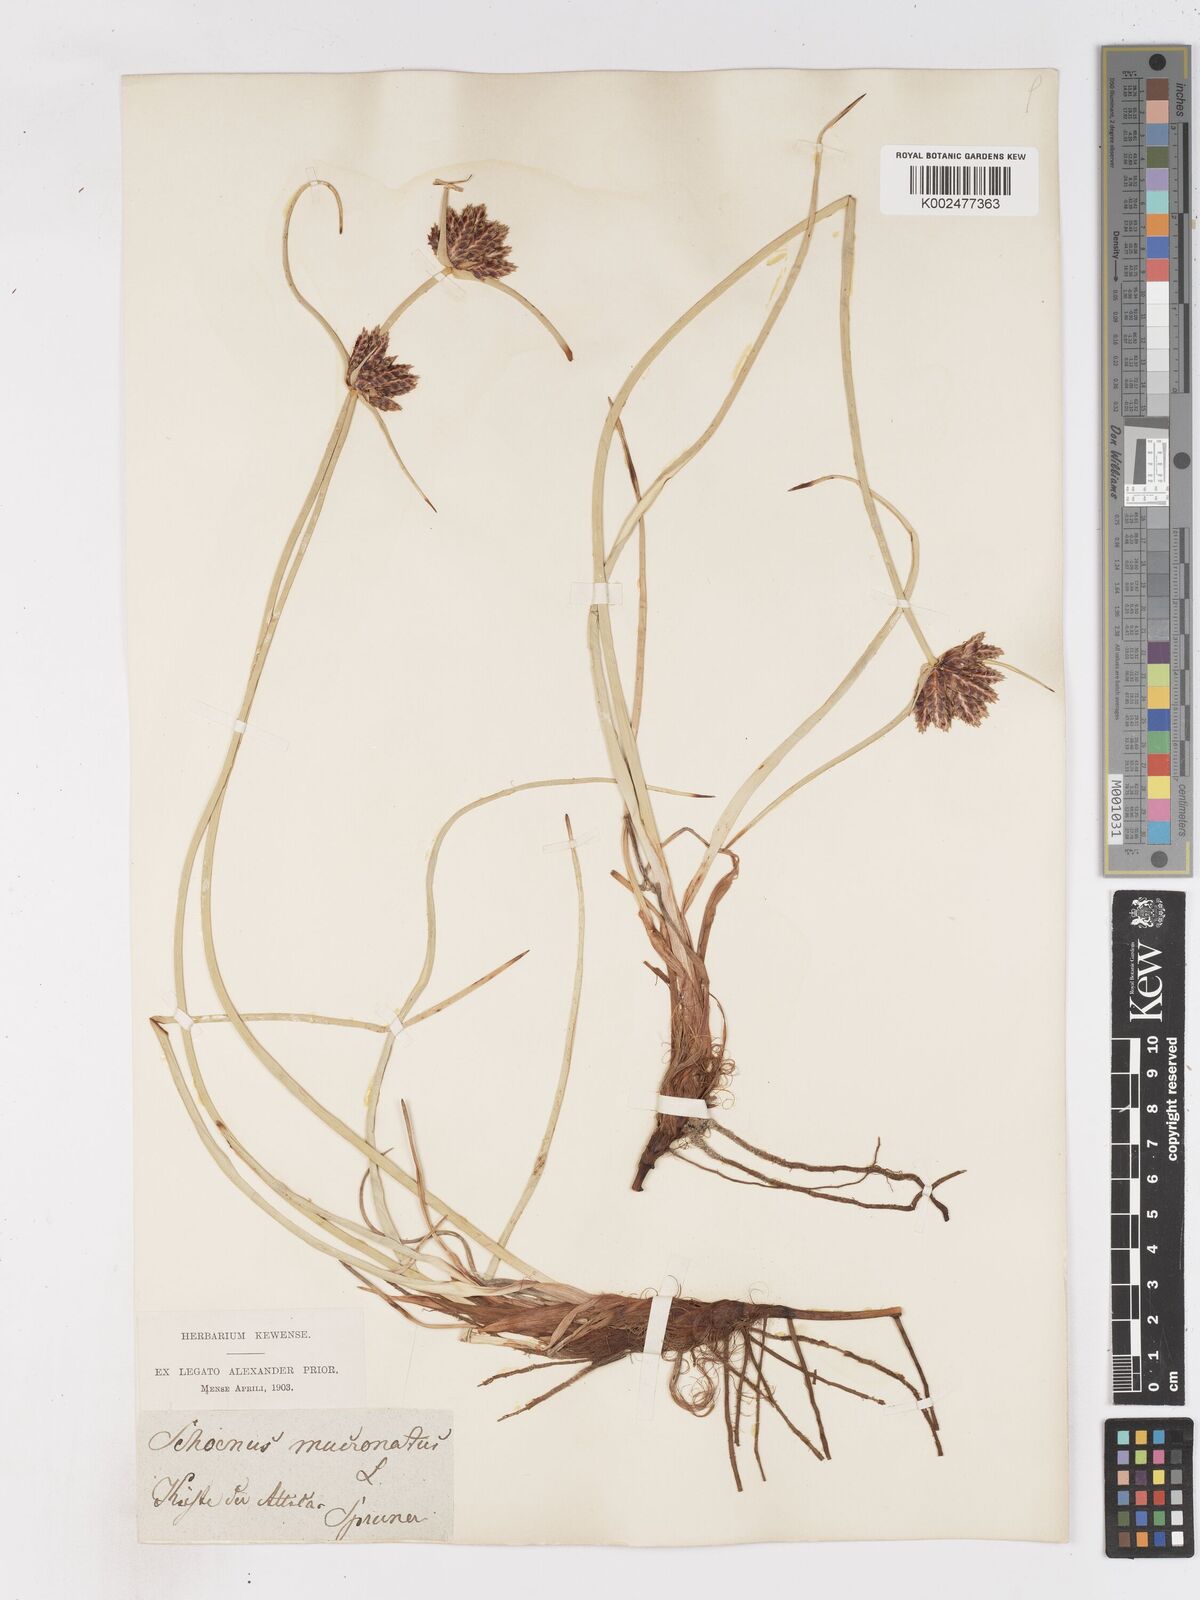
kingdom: Plantae
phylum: Tracheophyta
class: Liliopsida
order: Poales
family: Cyperaceae
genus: Cyperus
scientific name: Cyperus capitatus
